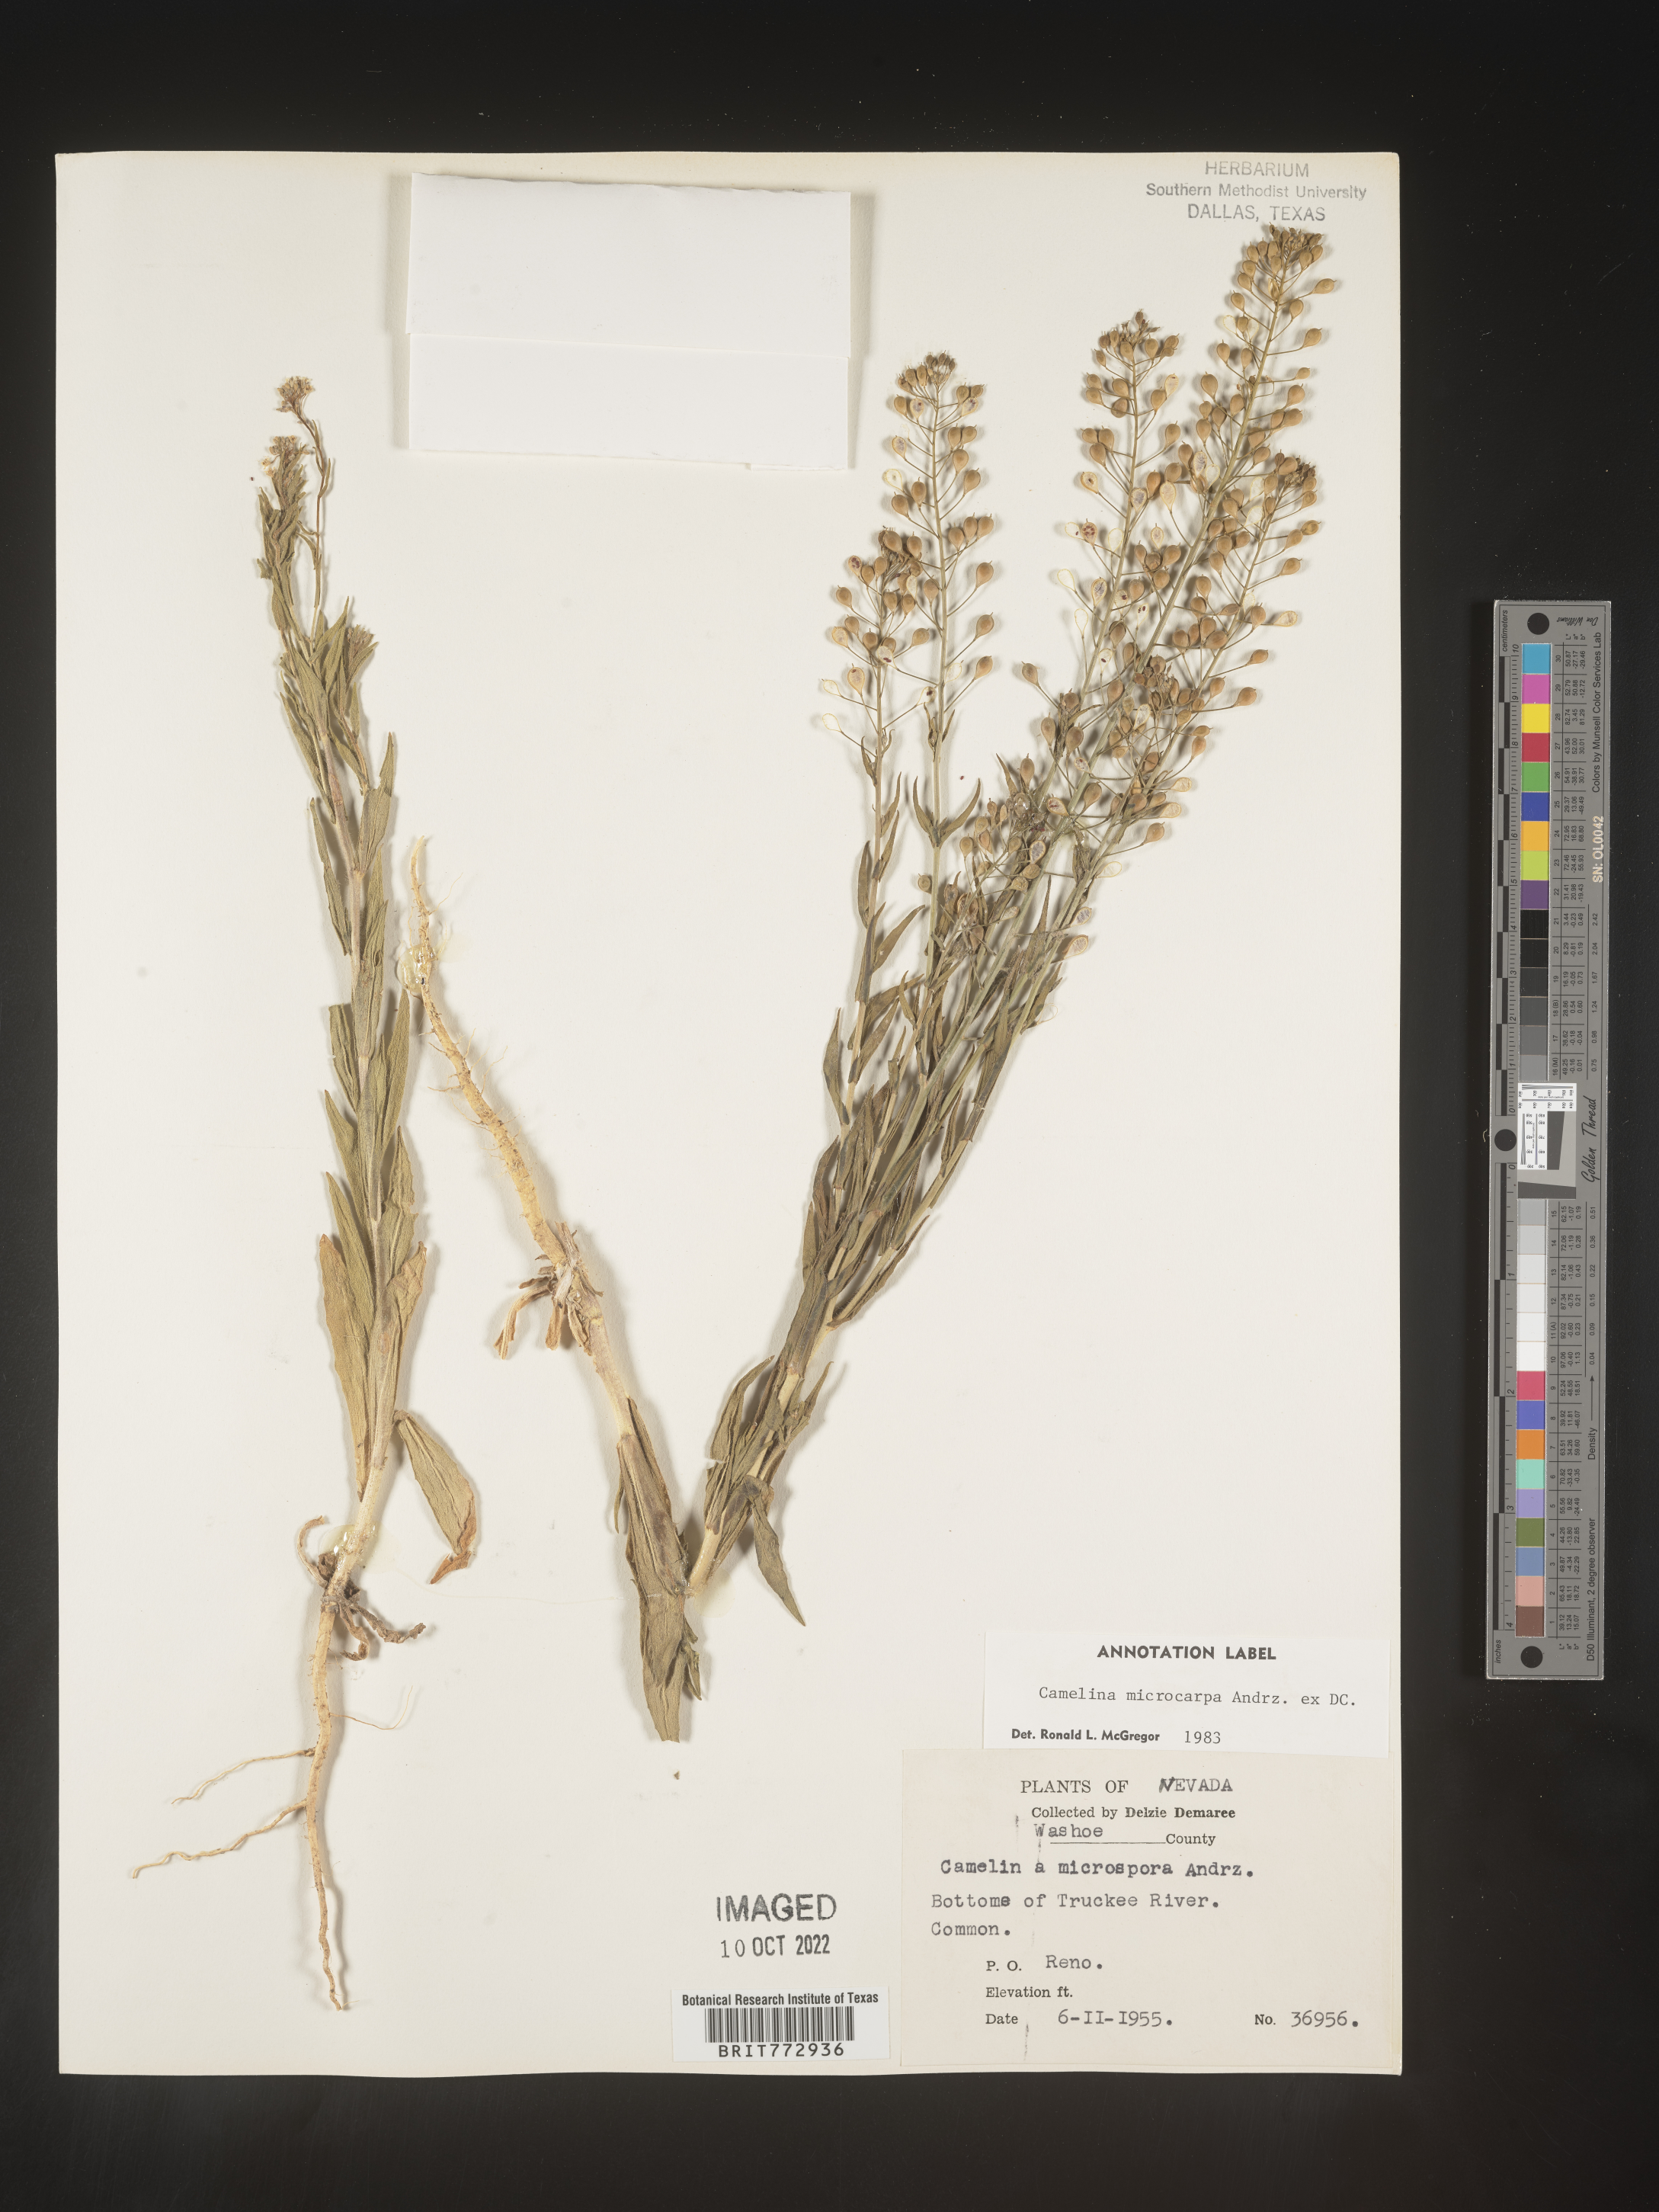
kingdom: Plantae
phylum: Tracheophyta
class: Magnoliopsida
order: Brassicales
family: Brassicaceae
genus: Camelina
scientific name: Camelina microcarpa
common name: Lesser gold-of-pleasure
